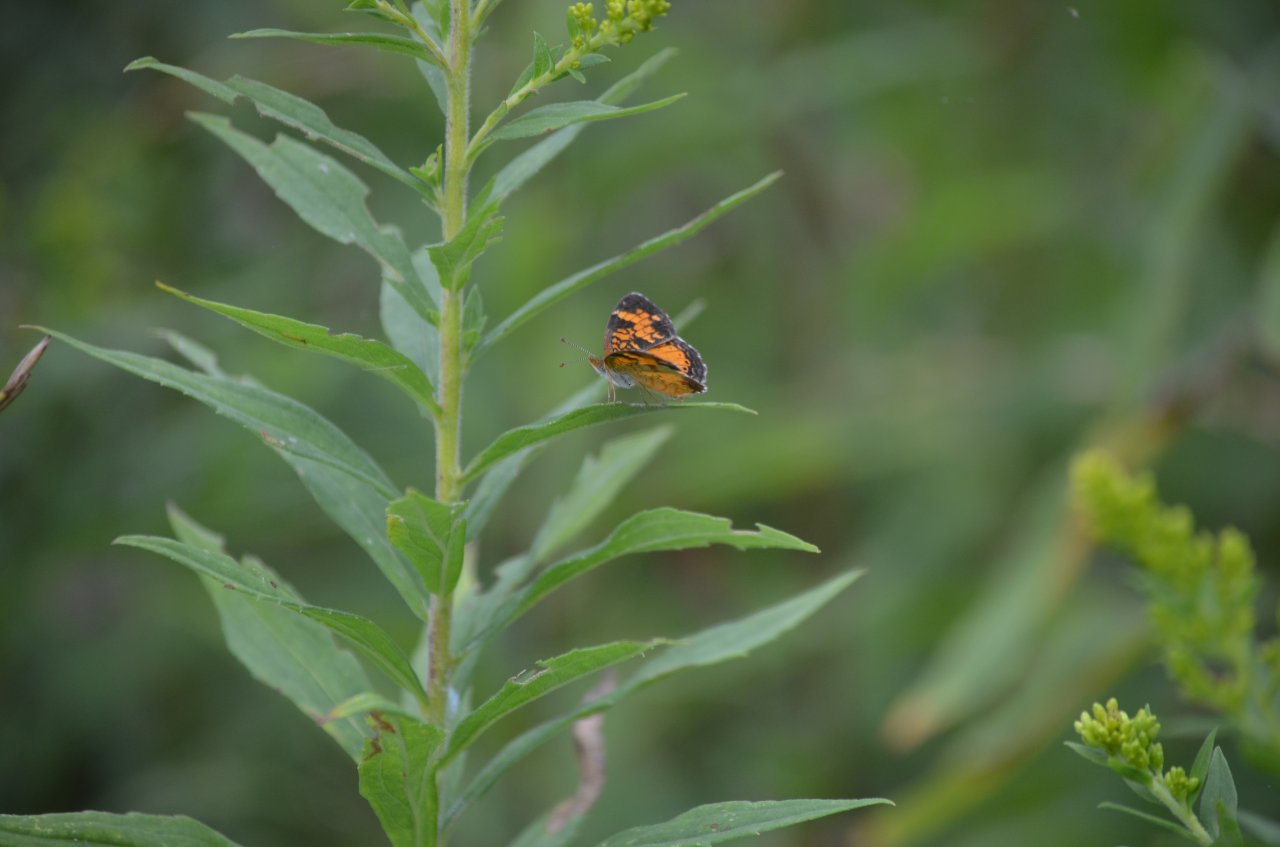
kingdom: Animalia
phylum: Arthropoda
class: Insecta
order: Lepidoptera
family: Nymphalidae
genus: Phyciodes
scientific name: Phyciodes tharos
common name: Northern Crescent
